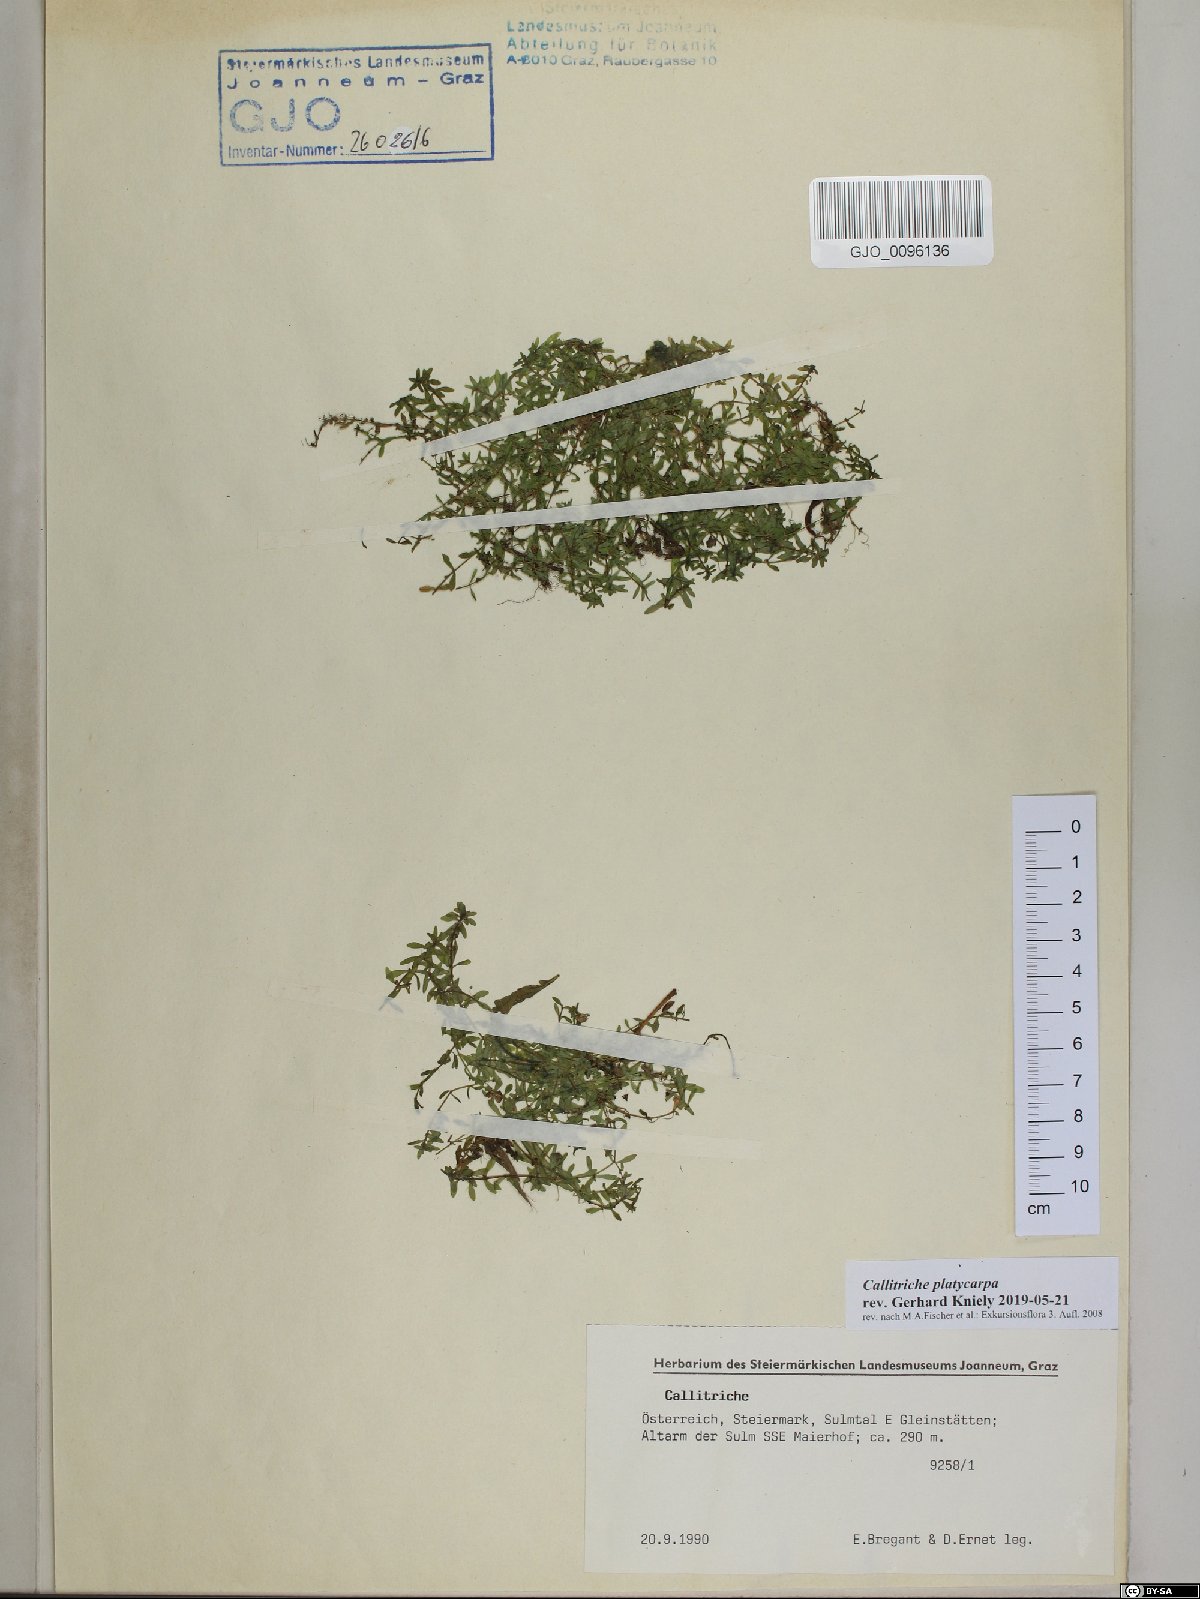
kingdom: Plantae
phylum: Tracheophyta
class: Magnoliopsida
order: Lamiales
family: Plantaginaceae
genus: Callitriche
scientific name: Callitriche platycarpa
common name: Various-leaved water-starwort
